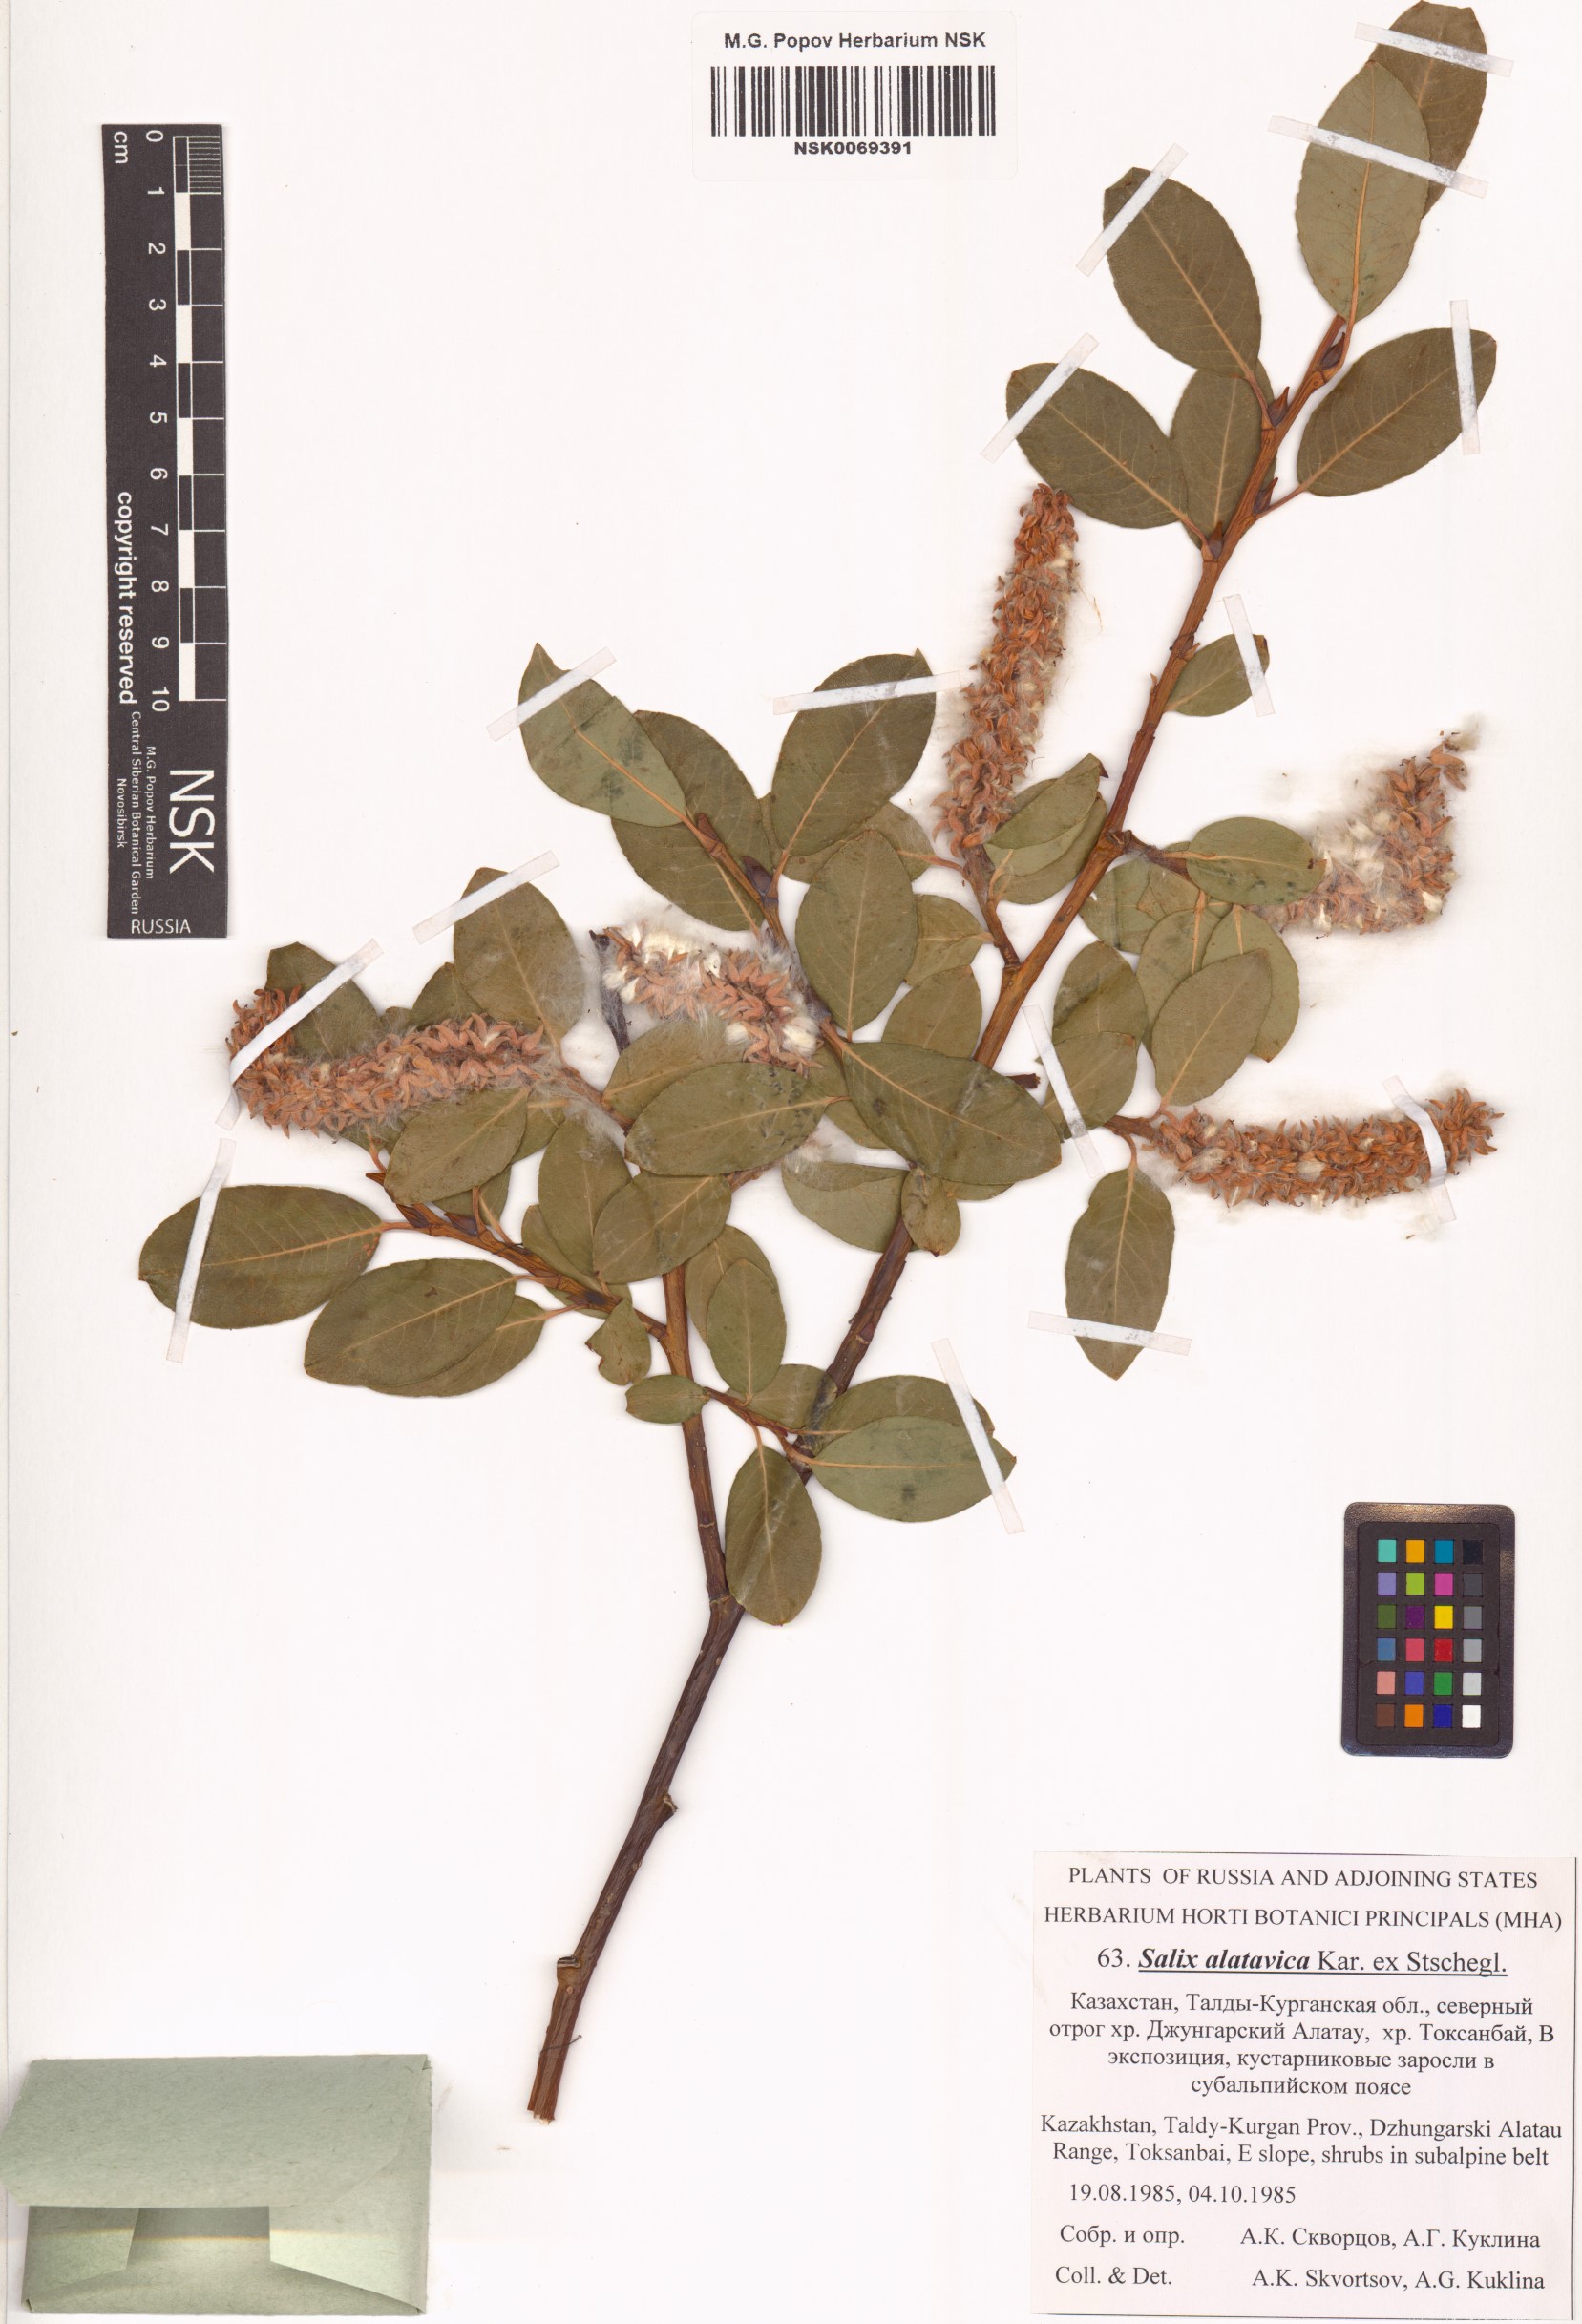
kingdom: Plantae
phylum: Tracheophyta
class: Magnoliopsida
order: Malpighiales
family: Salicaceae
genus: Salix
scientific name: Salix alatavica
